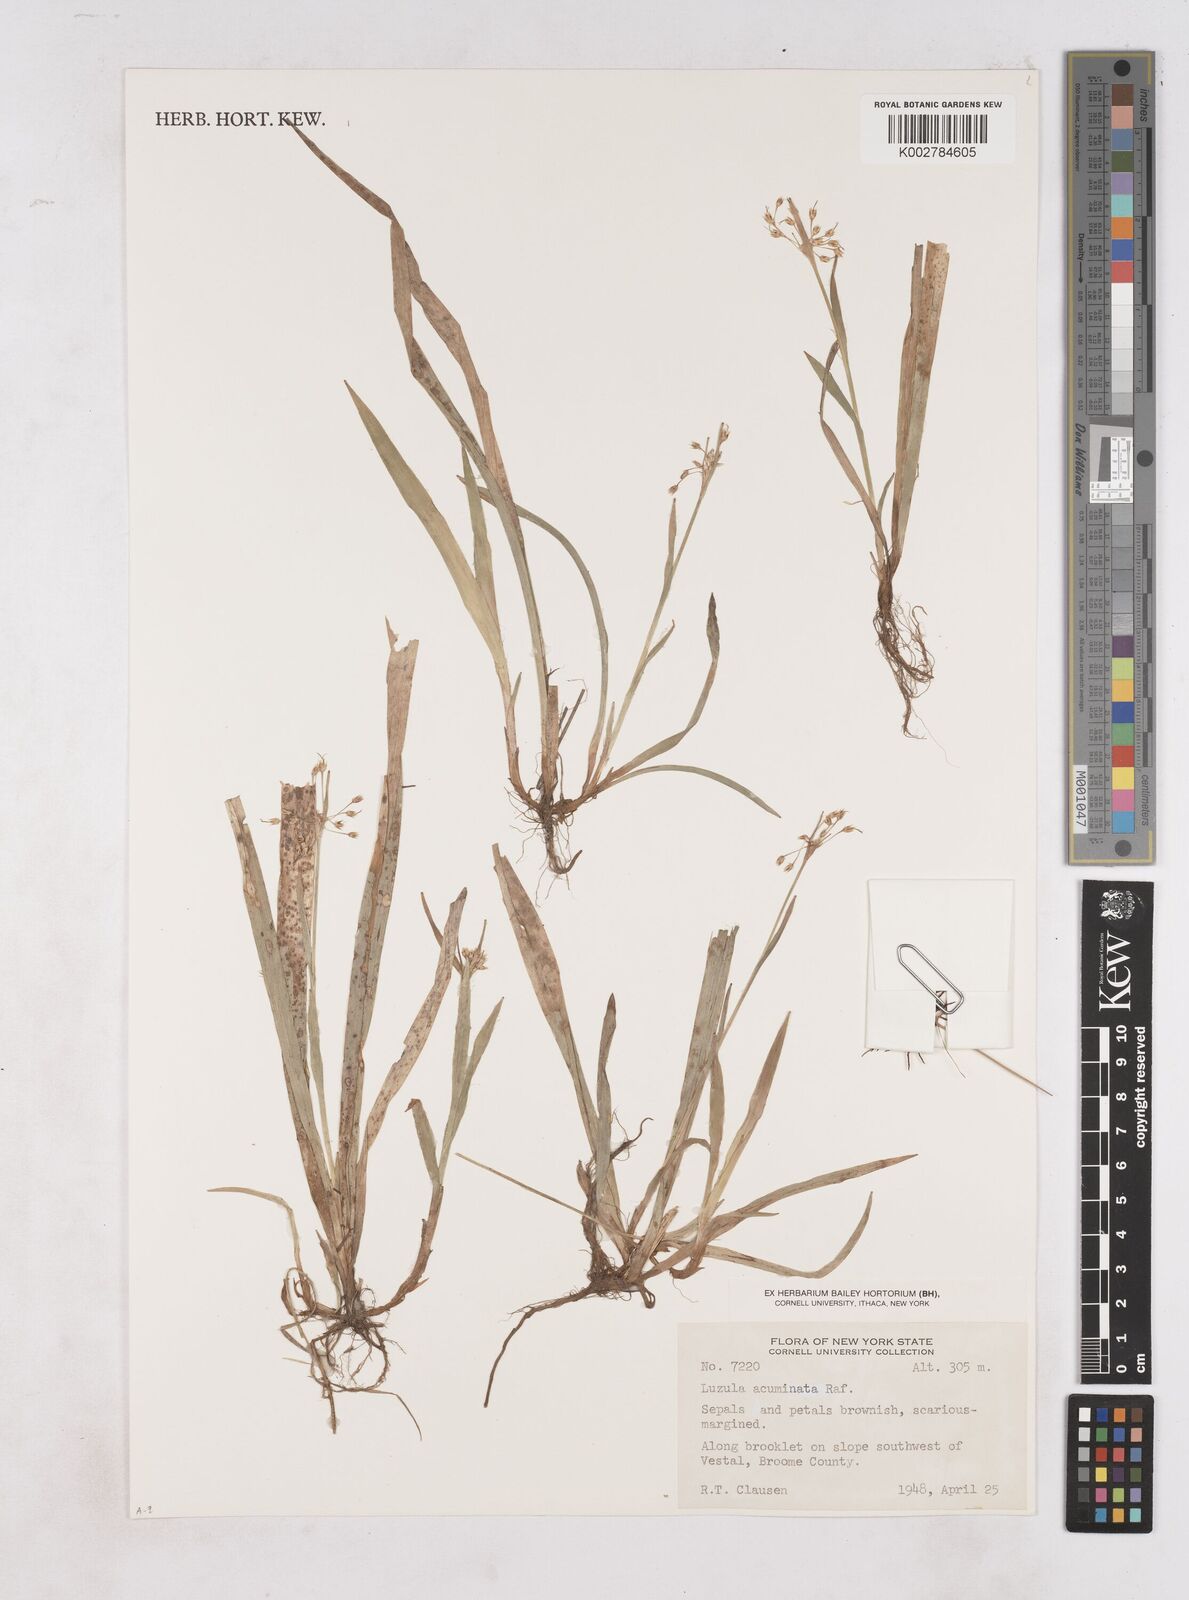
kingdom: Plantae
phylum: Tracheophyta
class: Liliopsida
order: Poales
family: Juncaceae
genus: Luzula
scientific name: Luzula acuminata
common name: Hairy woodrush
